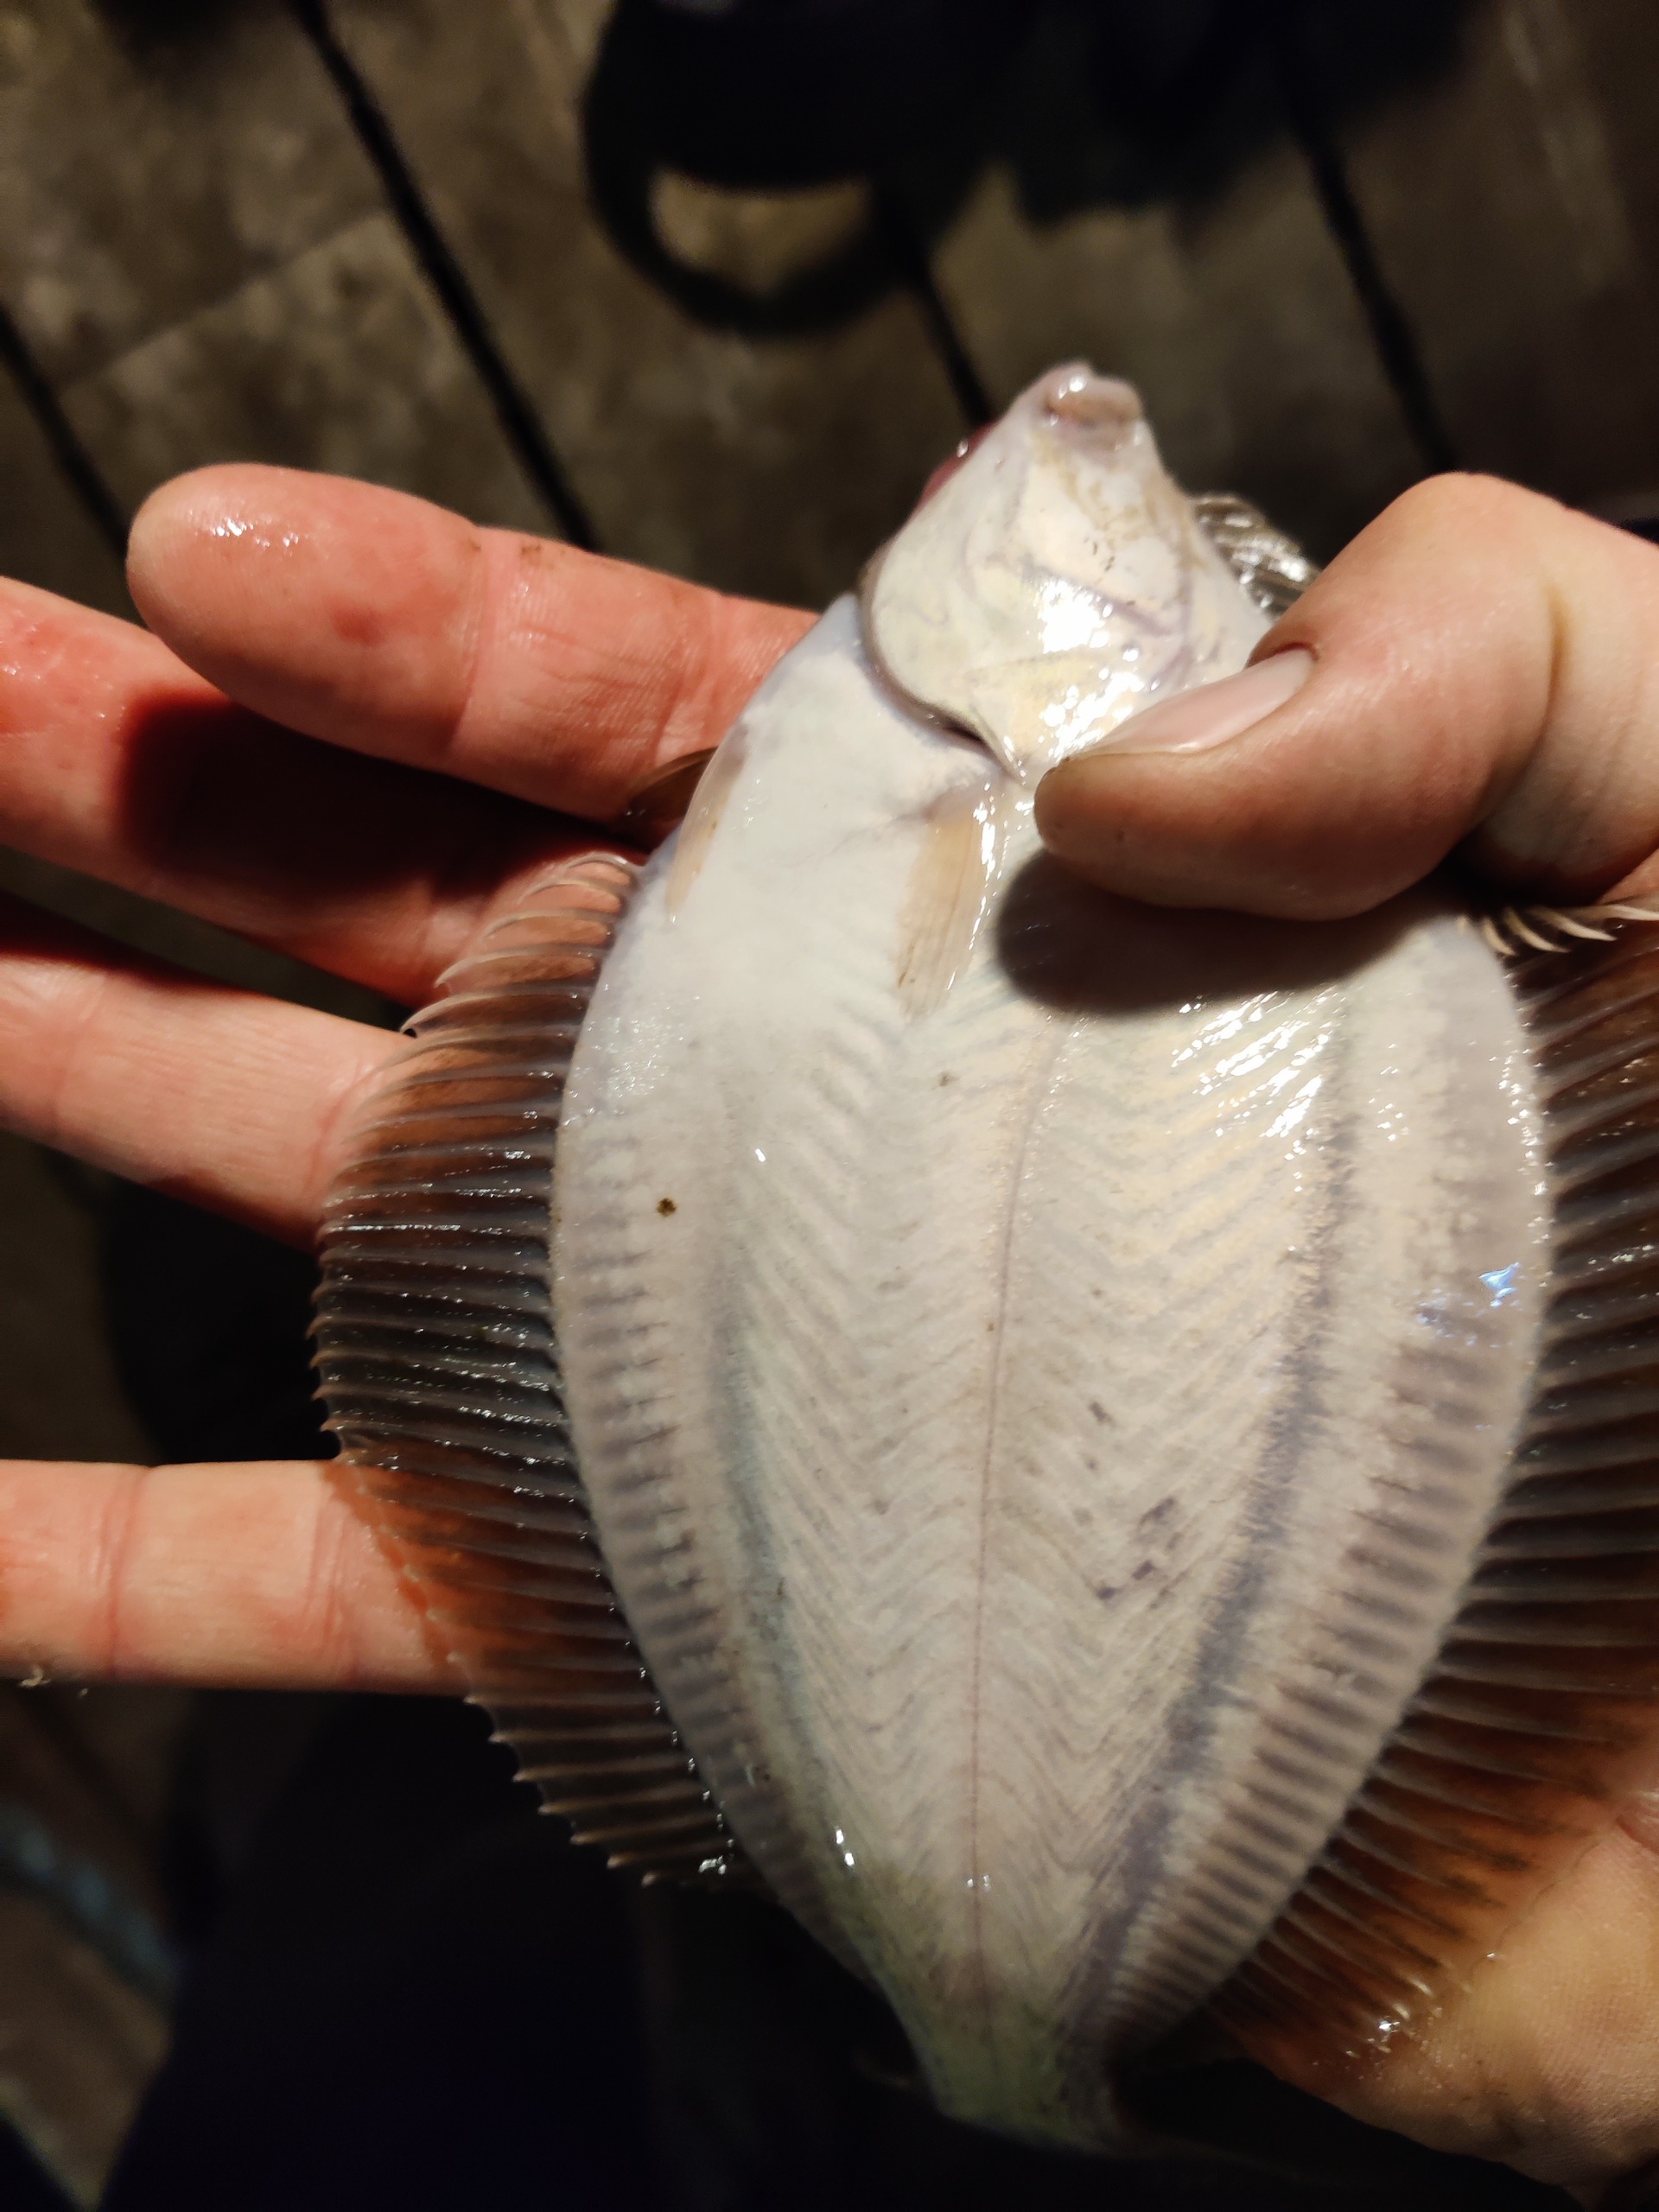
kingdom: Animalia
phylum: Chordata
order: Pleuronectiformes
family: Pleuronectidae
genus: Platichthys
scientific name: Platichthys flesus
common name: Skrubbe
